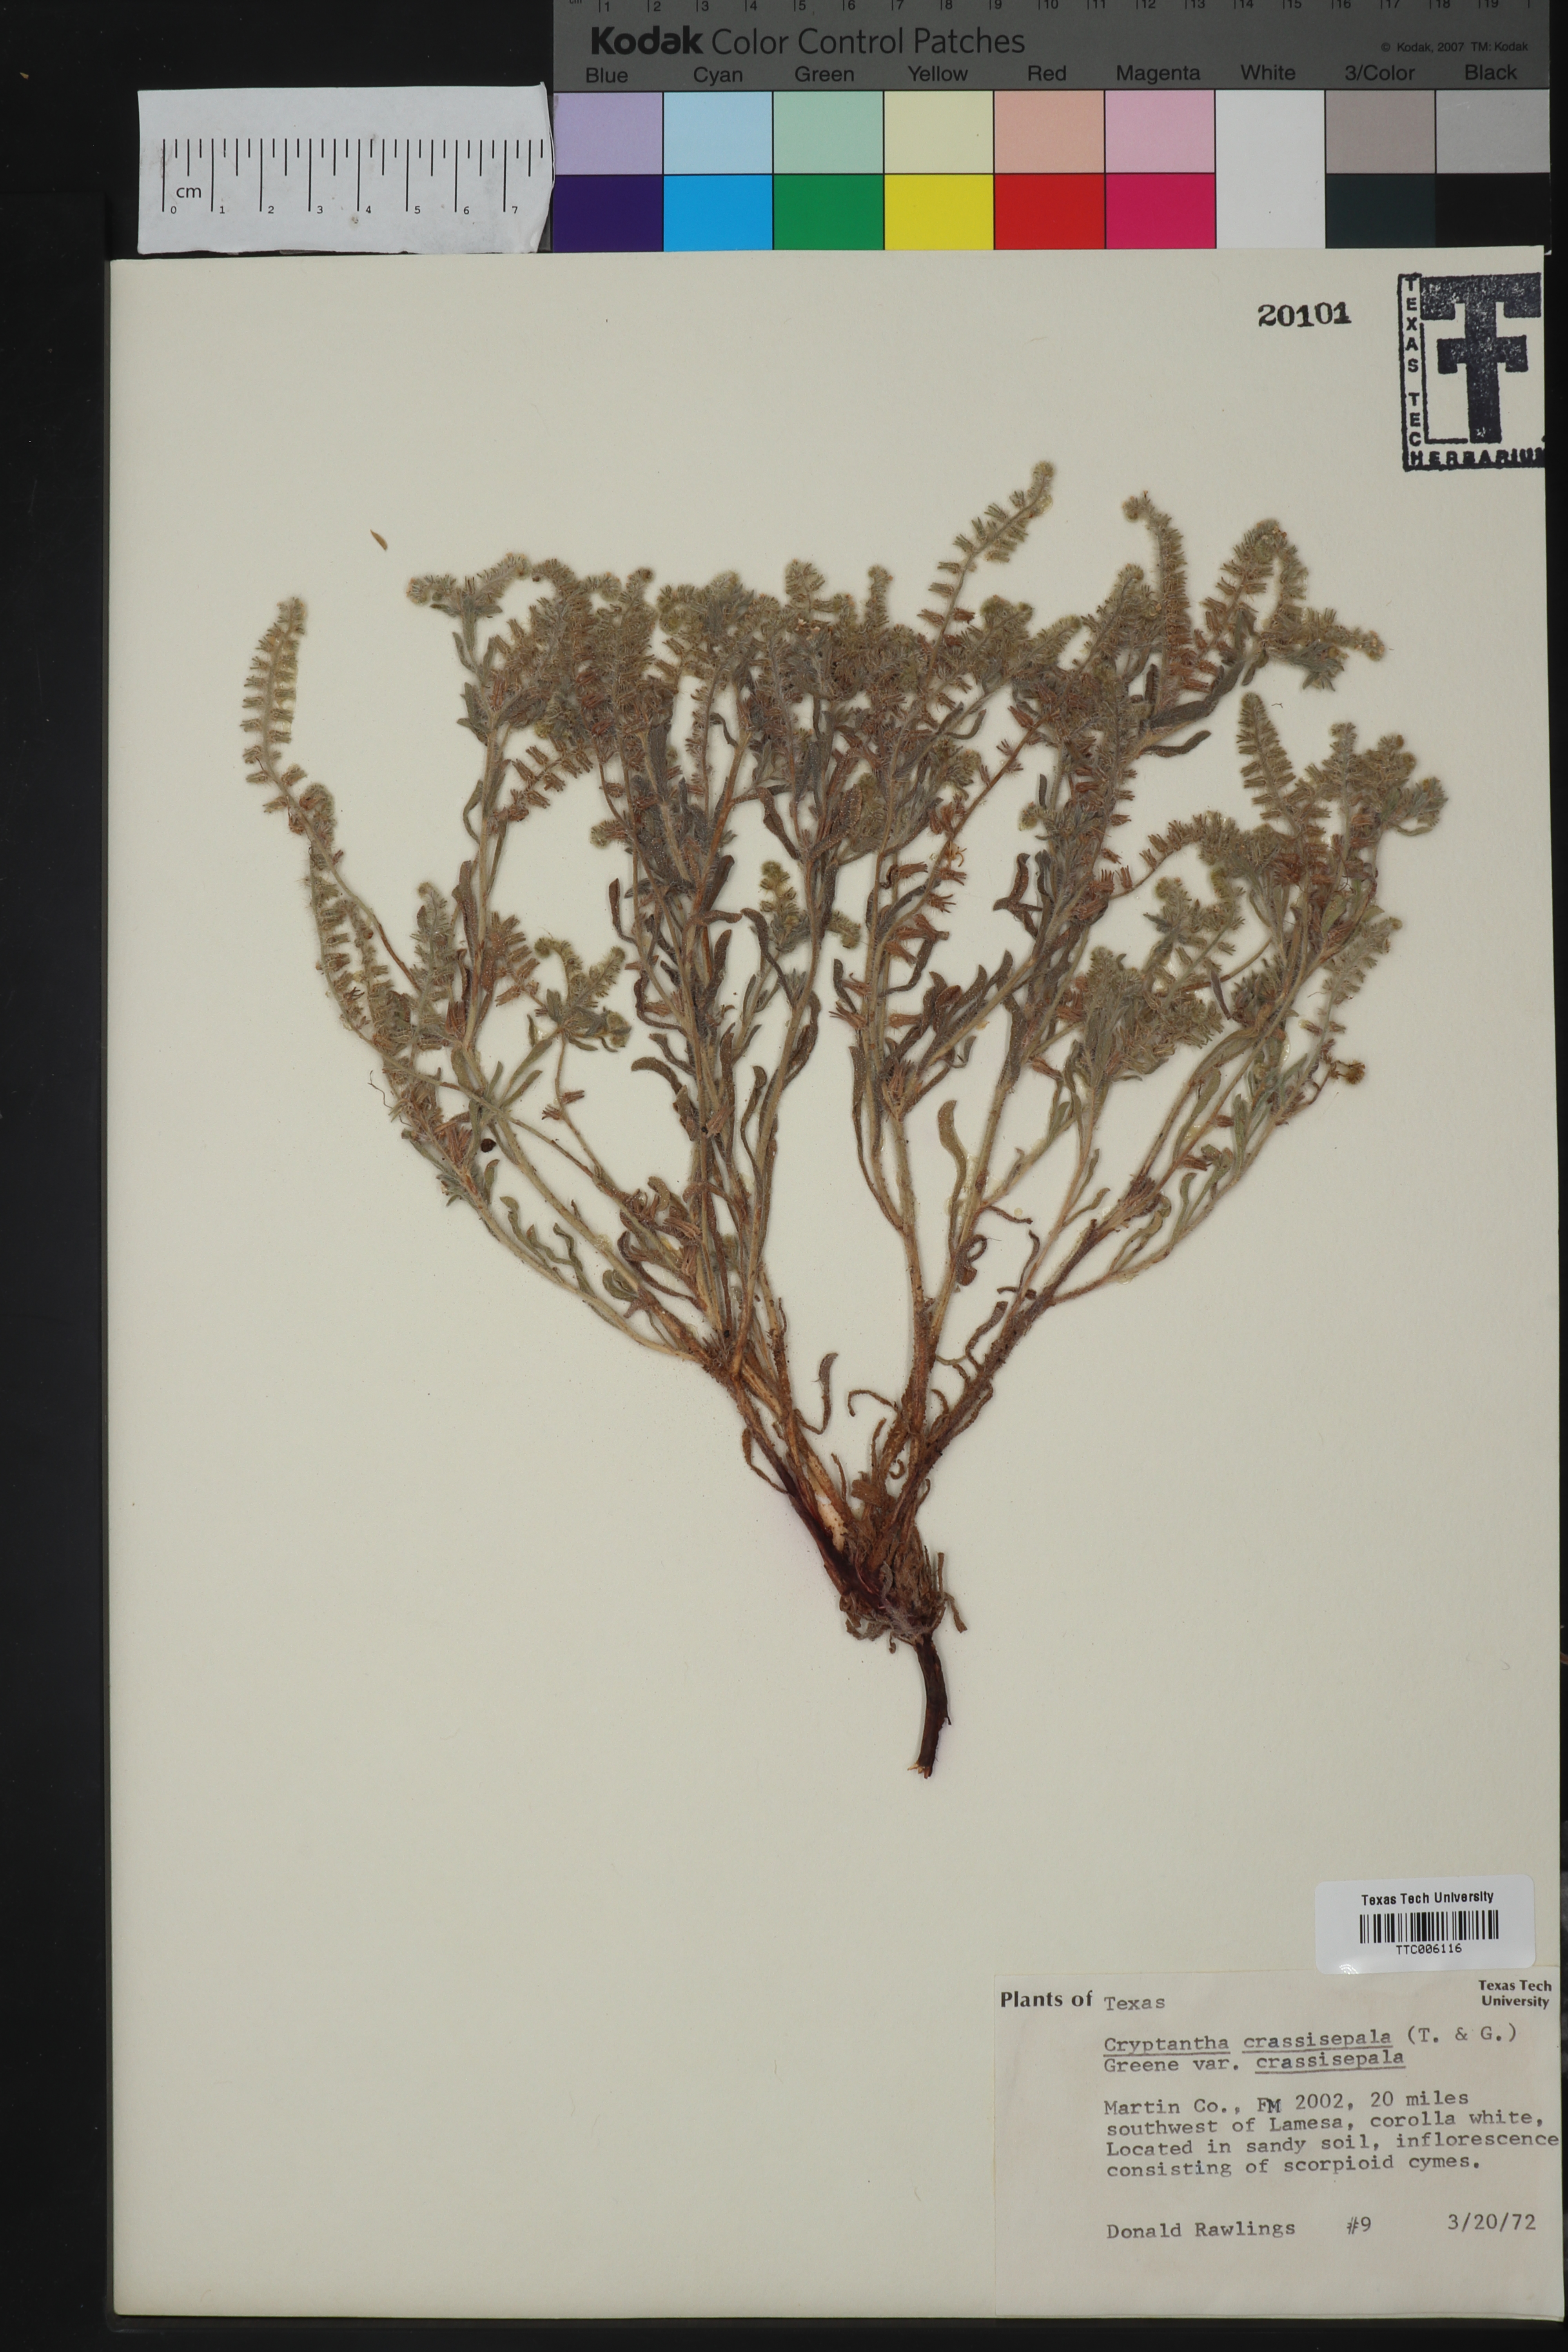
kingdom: Plantae
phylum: Tracheophyta
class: Magnoliopsida
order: Boraginales
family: Boraginaceae
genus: Cryptantha
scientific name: Cryptantha crassisepala
